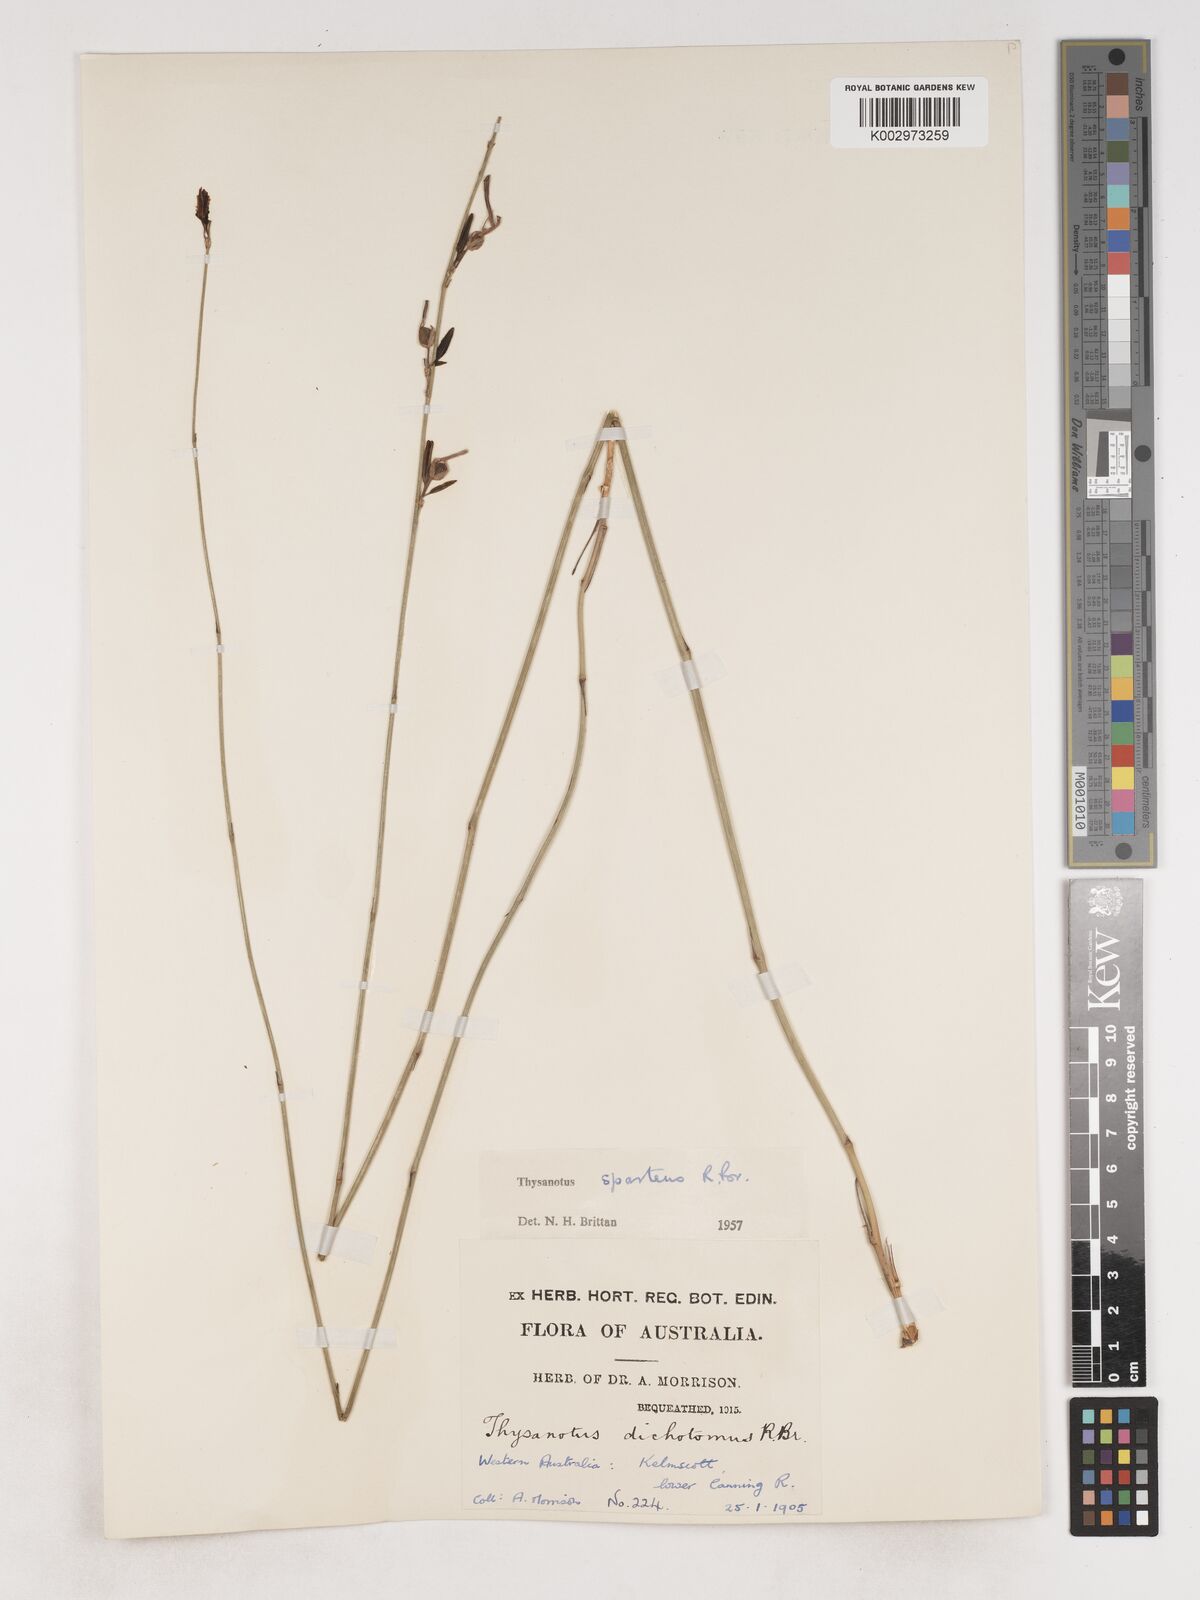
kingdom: Plantae
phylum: Tracheophyta
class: Liliopsida
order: Asparagales
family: Asparagaceae
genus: Thysanotus
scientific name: Thysanotus sparteus
